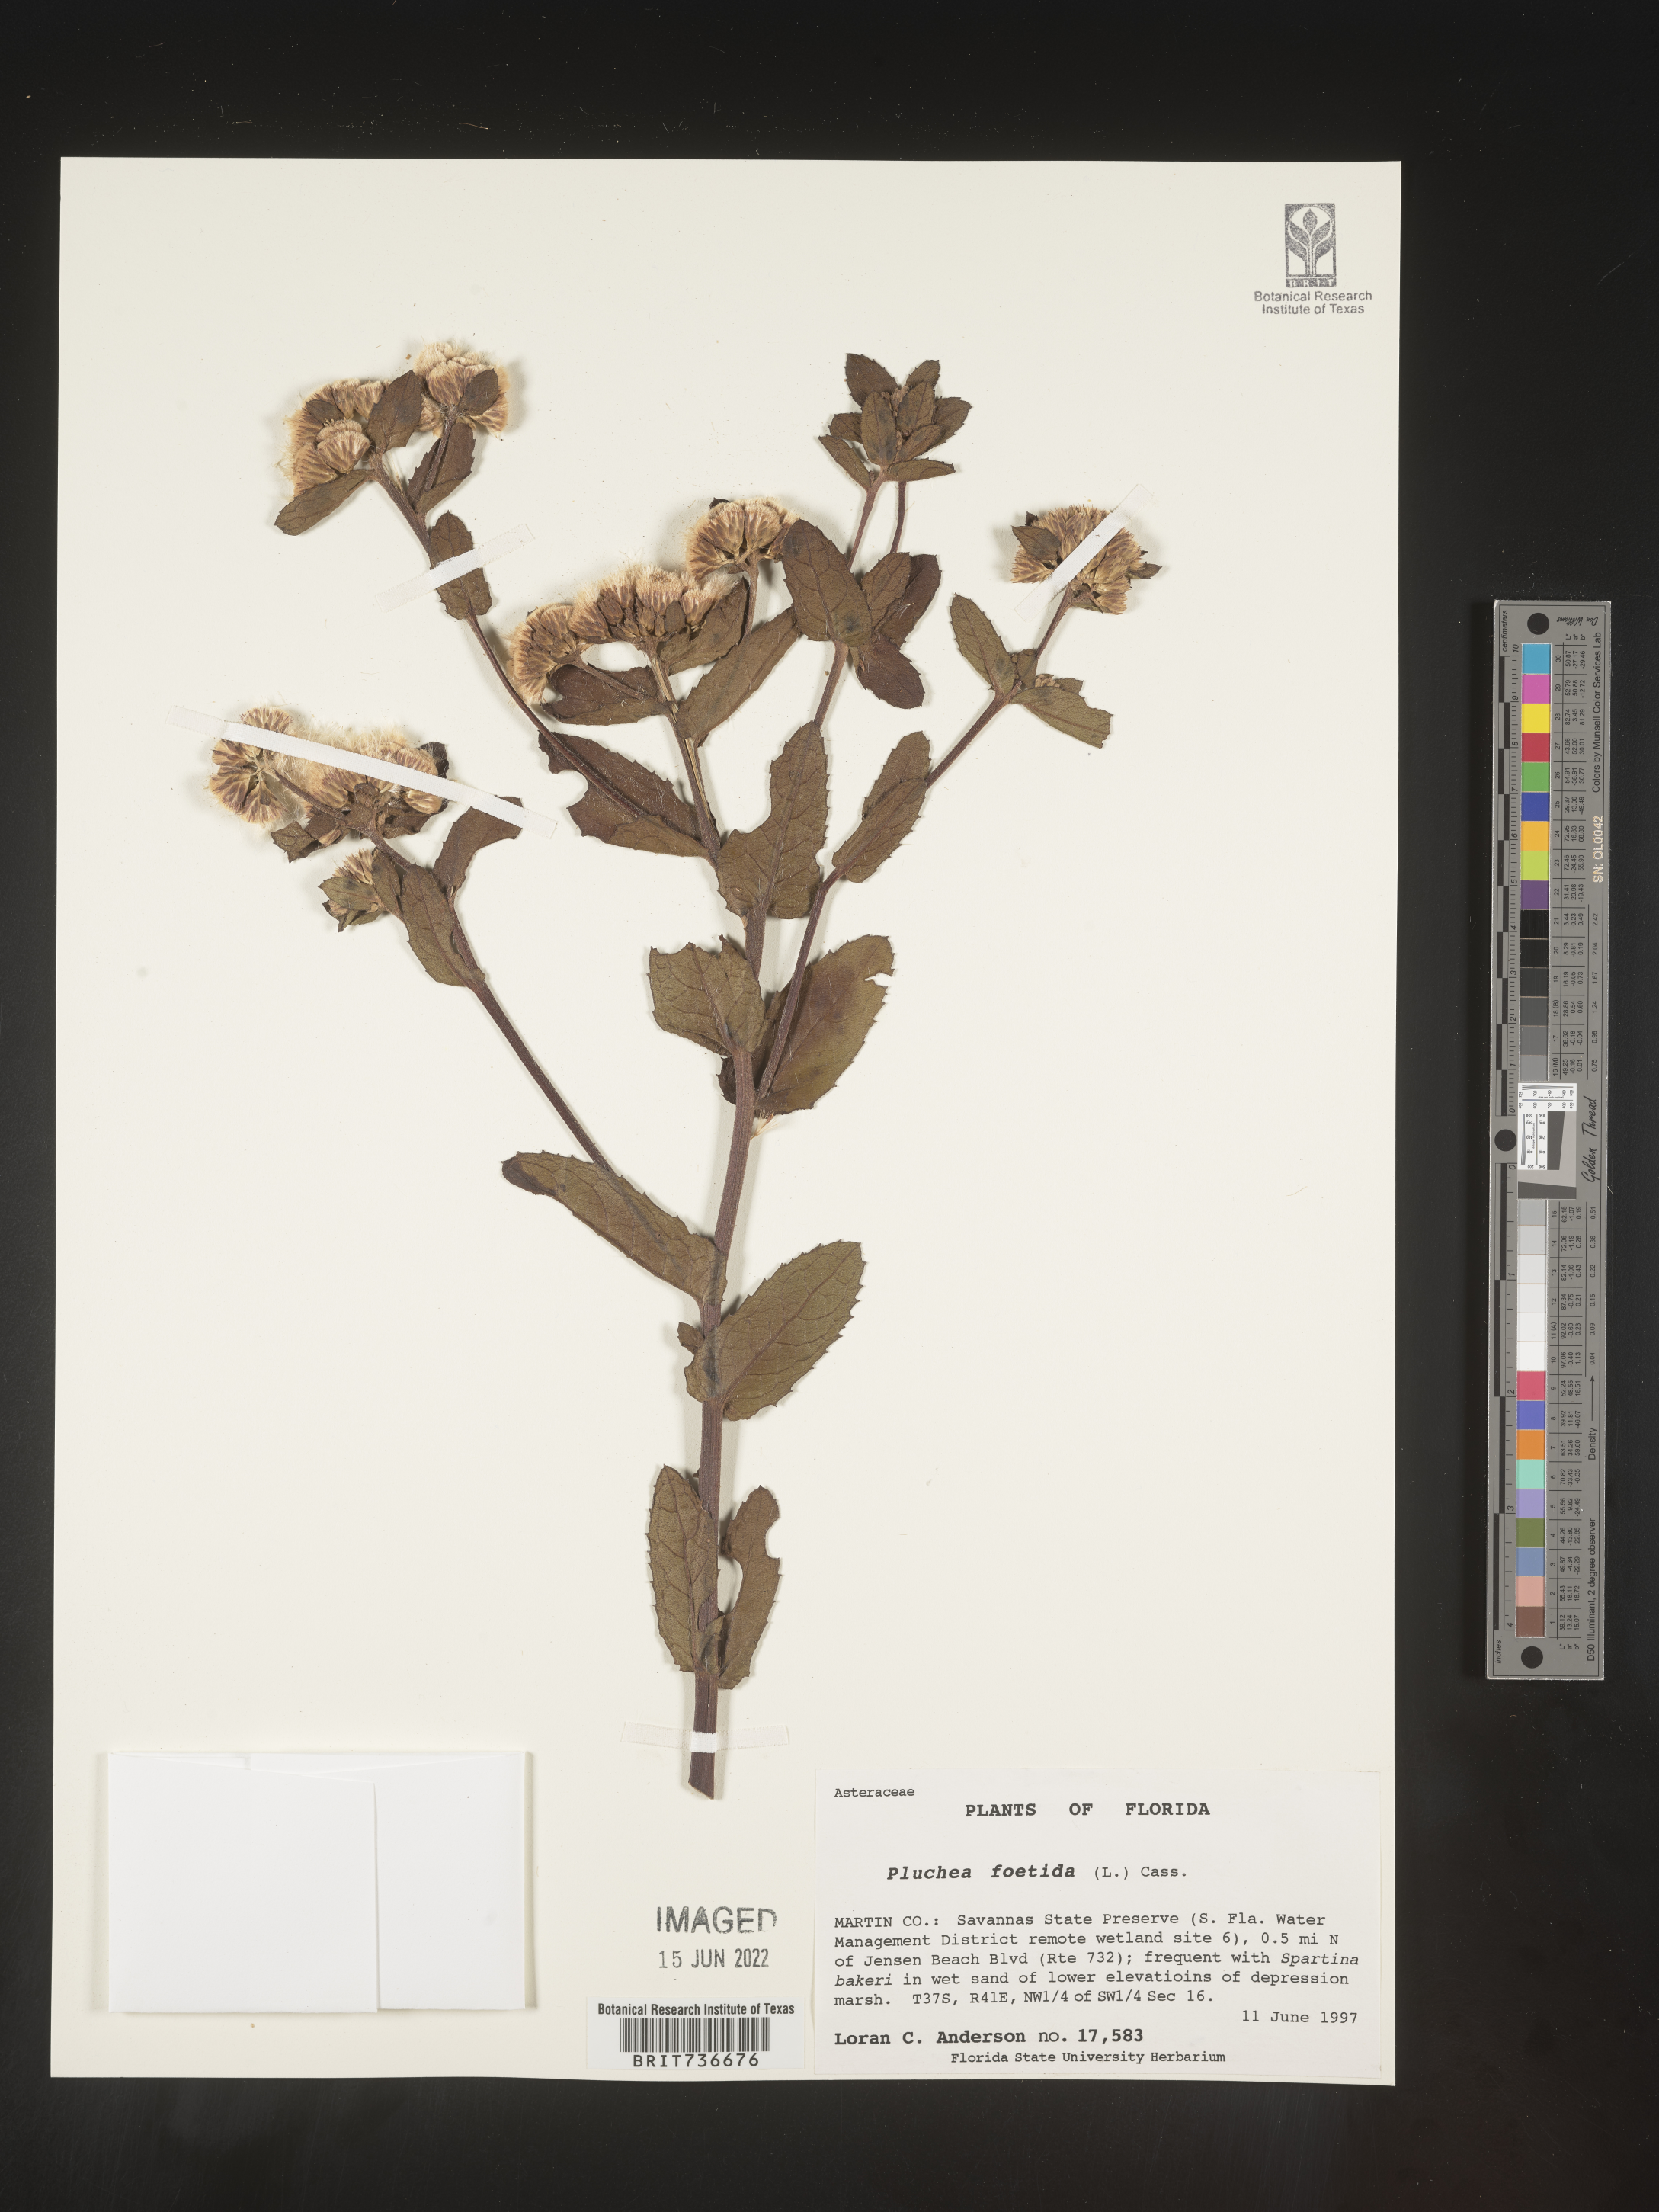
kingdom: Plantae
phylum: Tracheophyta
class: Magnoliopsida
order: Asterales
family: Asteraceae
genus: Pluchea
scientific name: Pluchea foetida
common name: Stinking camphorweed
